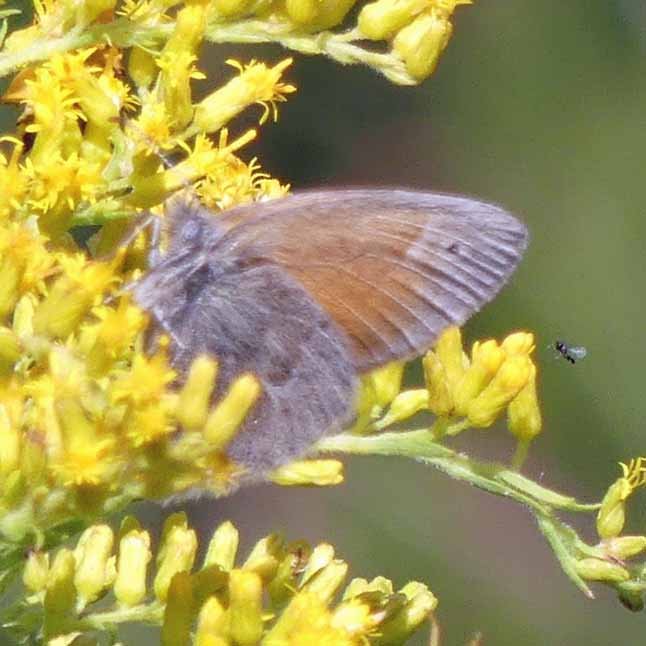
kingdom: Animalia
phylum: Arthropoda
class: Insecta
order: Lepidoptera
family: Nymphalidae
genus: Coenonympha
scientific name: Coenonympha tullia
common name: Large Heath
